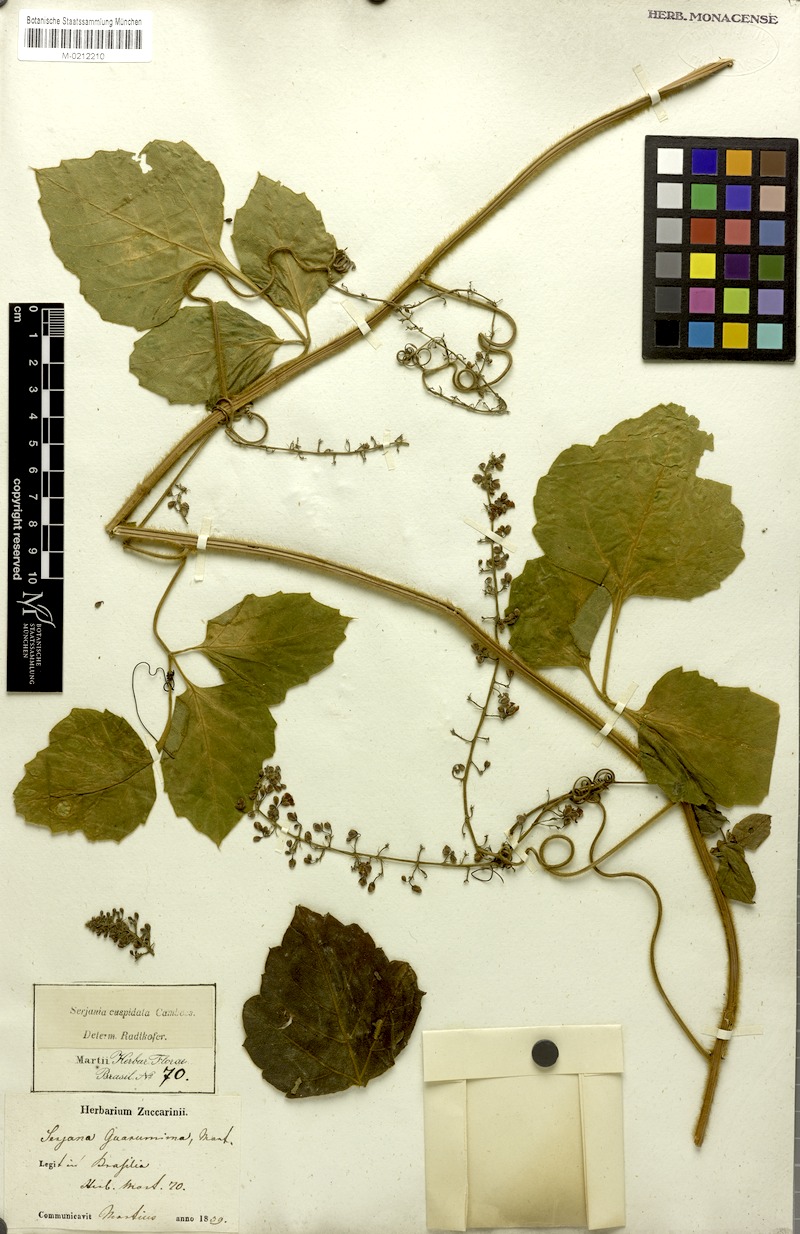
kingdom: Plantae
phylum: Tracheophyta
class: Magnoliopsida
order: Sapindales
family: Sapindaceae
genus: Serjania
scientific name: Serjania ferruginea
